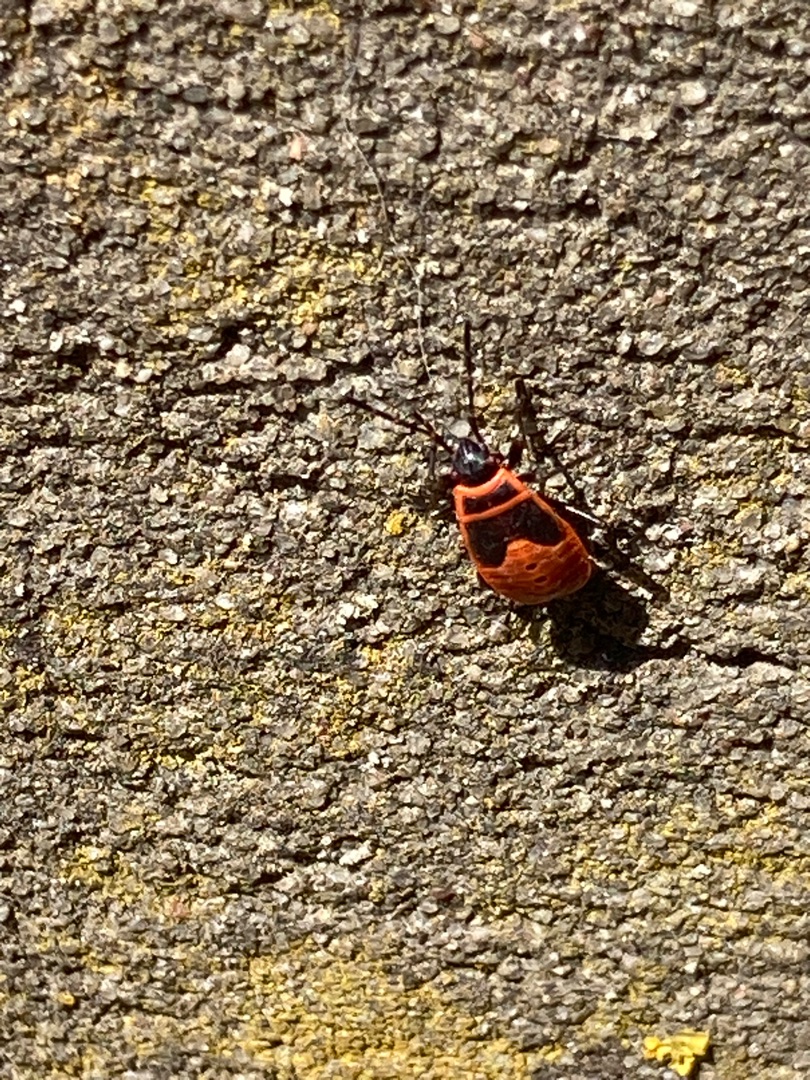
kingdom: Animalia
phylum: Arthropoda
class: Insecta
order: Hemiptera
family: Pyrrhocoridae
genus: Pyrrhocoris
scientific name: Pyrrhocoris apterus
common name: Ildtæge
